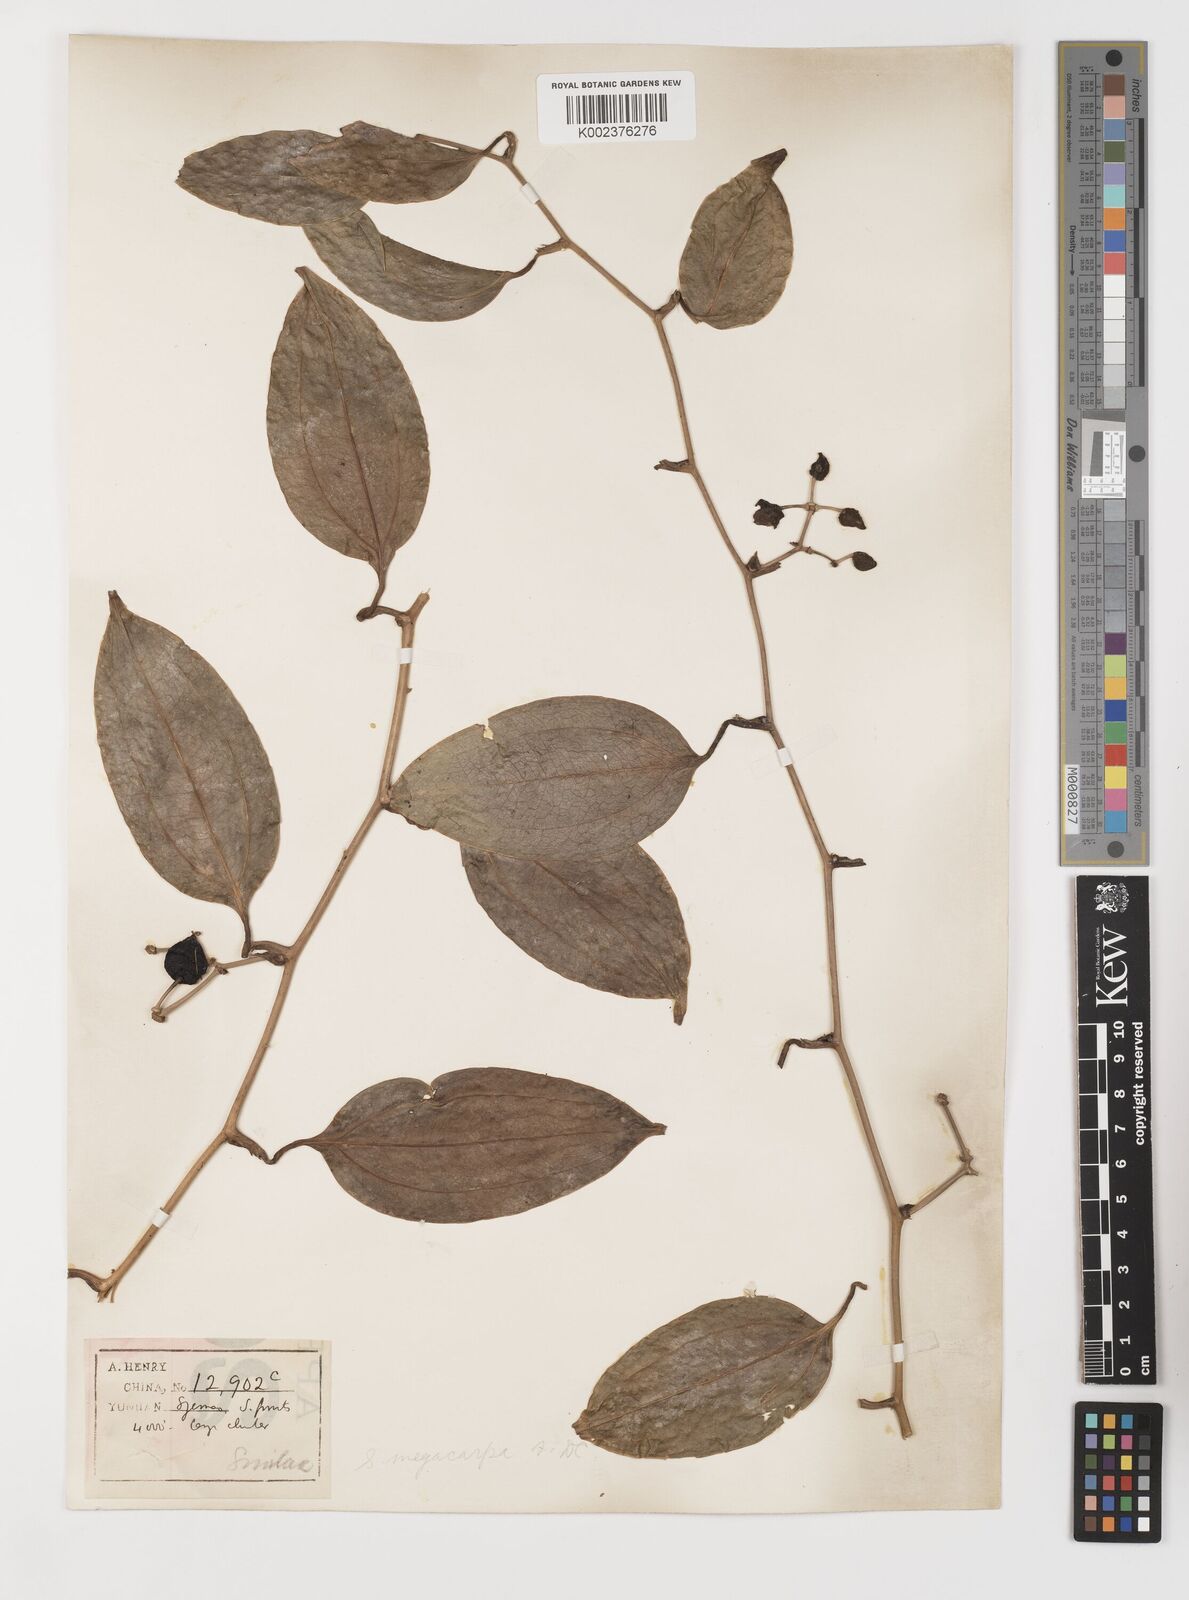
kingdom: Plantae
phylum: Tracheophyta
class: Liliopsida
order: Liliales
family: Smilacaceae
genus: Smilax
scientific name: Smilax megacarpa
